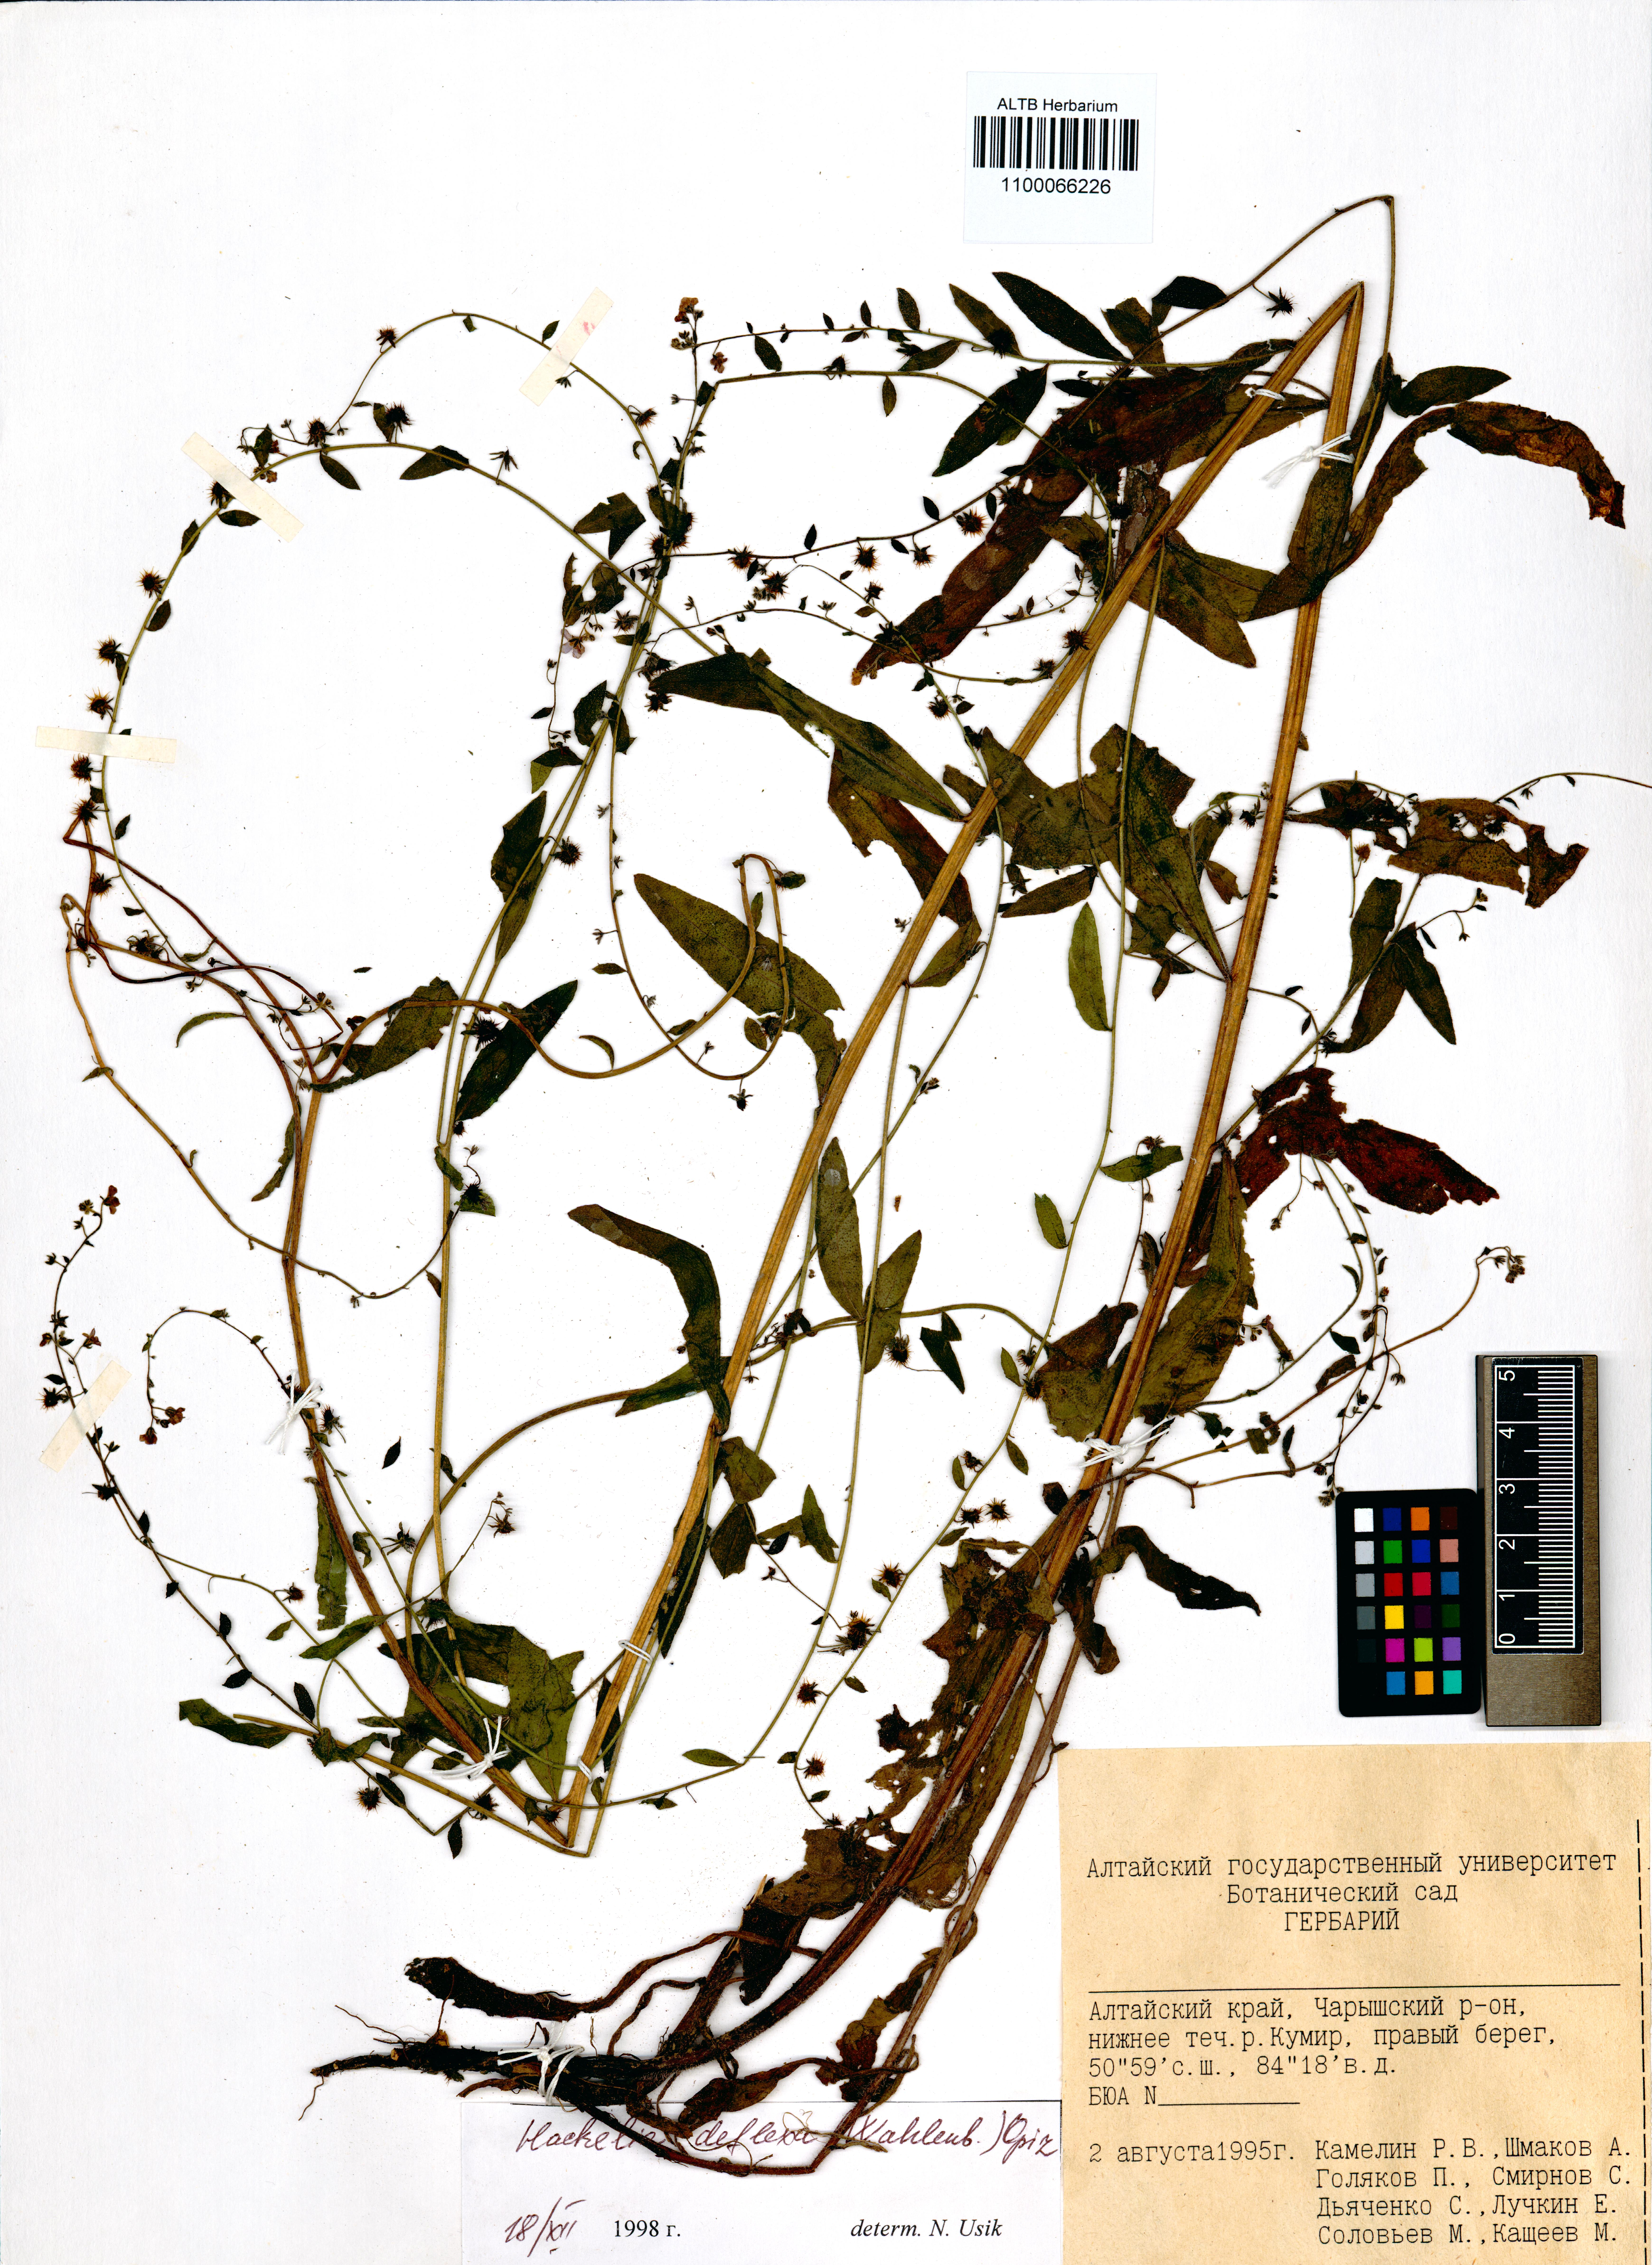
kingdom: Plantae
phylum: Tracheophyta
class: Magnoliopsida
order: Boraginales
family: Boraginaceae
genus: Hackelia
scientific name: Hackelia deflexa
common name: Nodding stickseed
